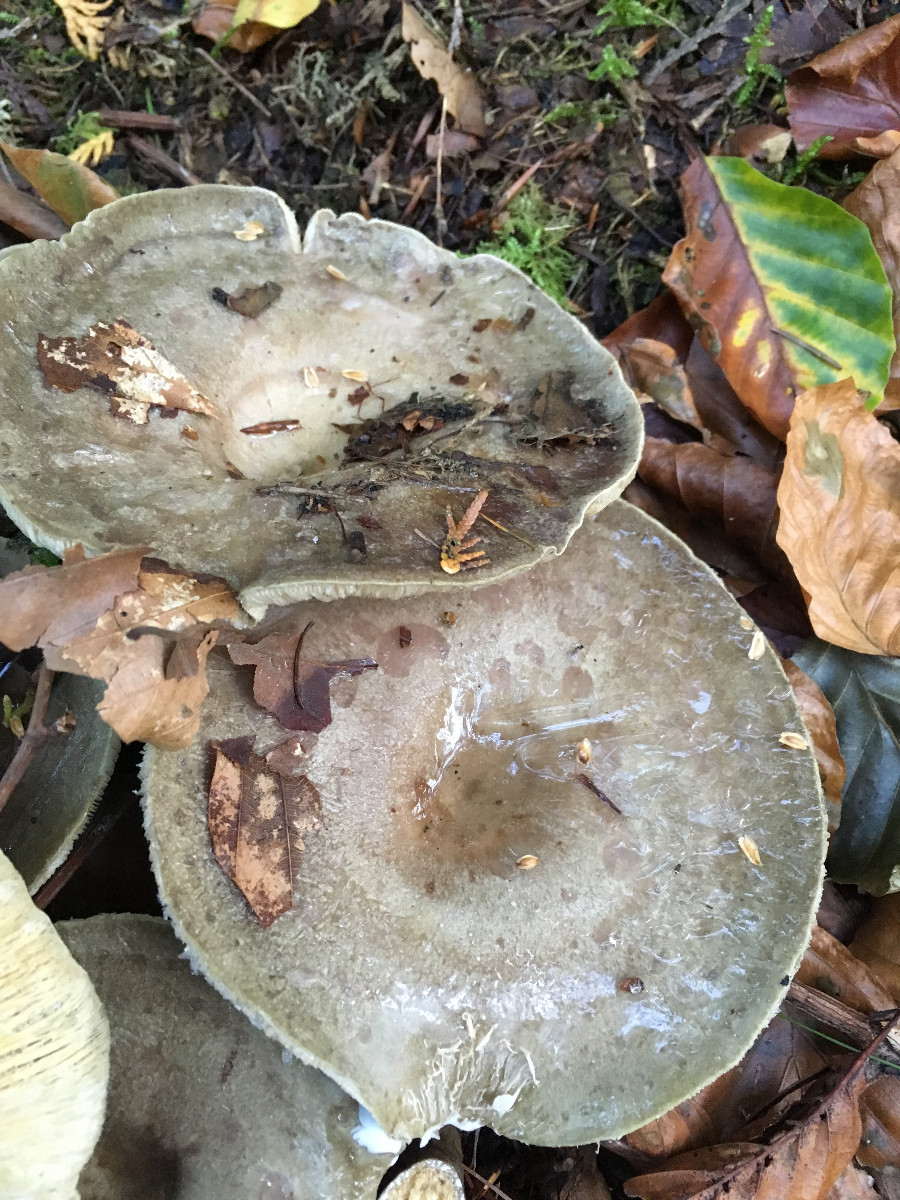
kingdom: Fungi
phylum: Basidiomycota
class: Agaricomycetes
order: Russulales
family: Russulaceae
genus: Lactarius
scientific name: Lactarius blennius
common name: dråbeplettet mælkehat
